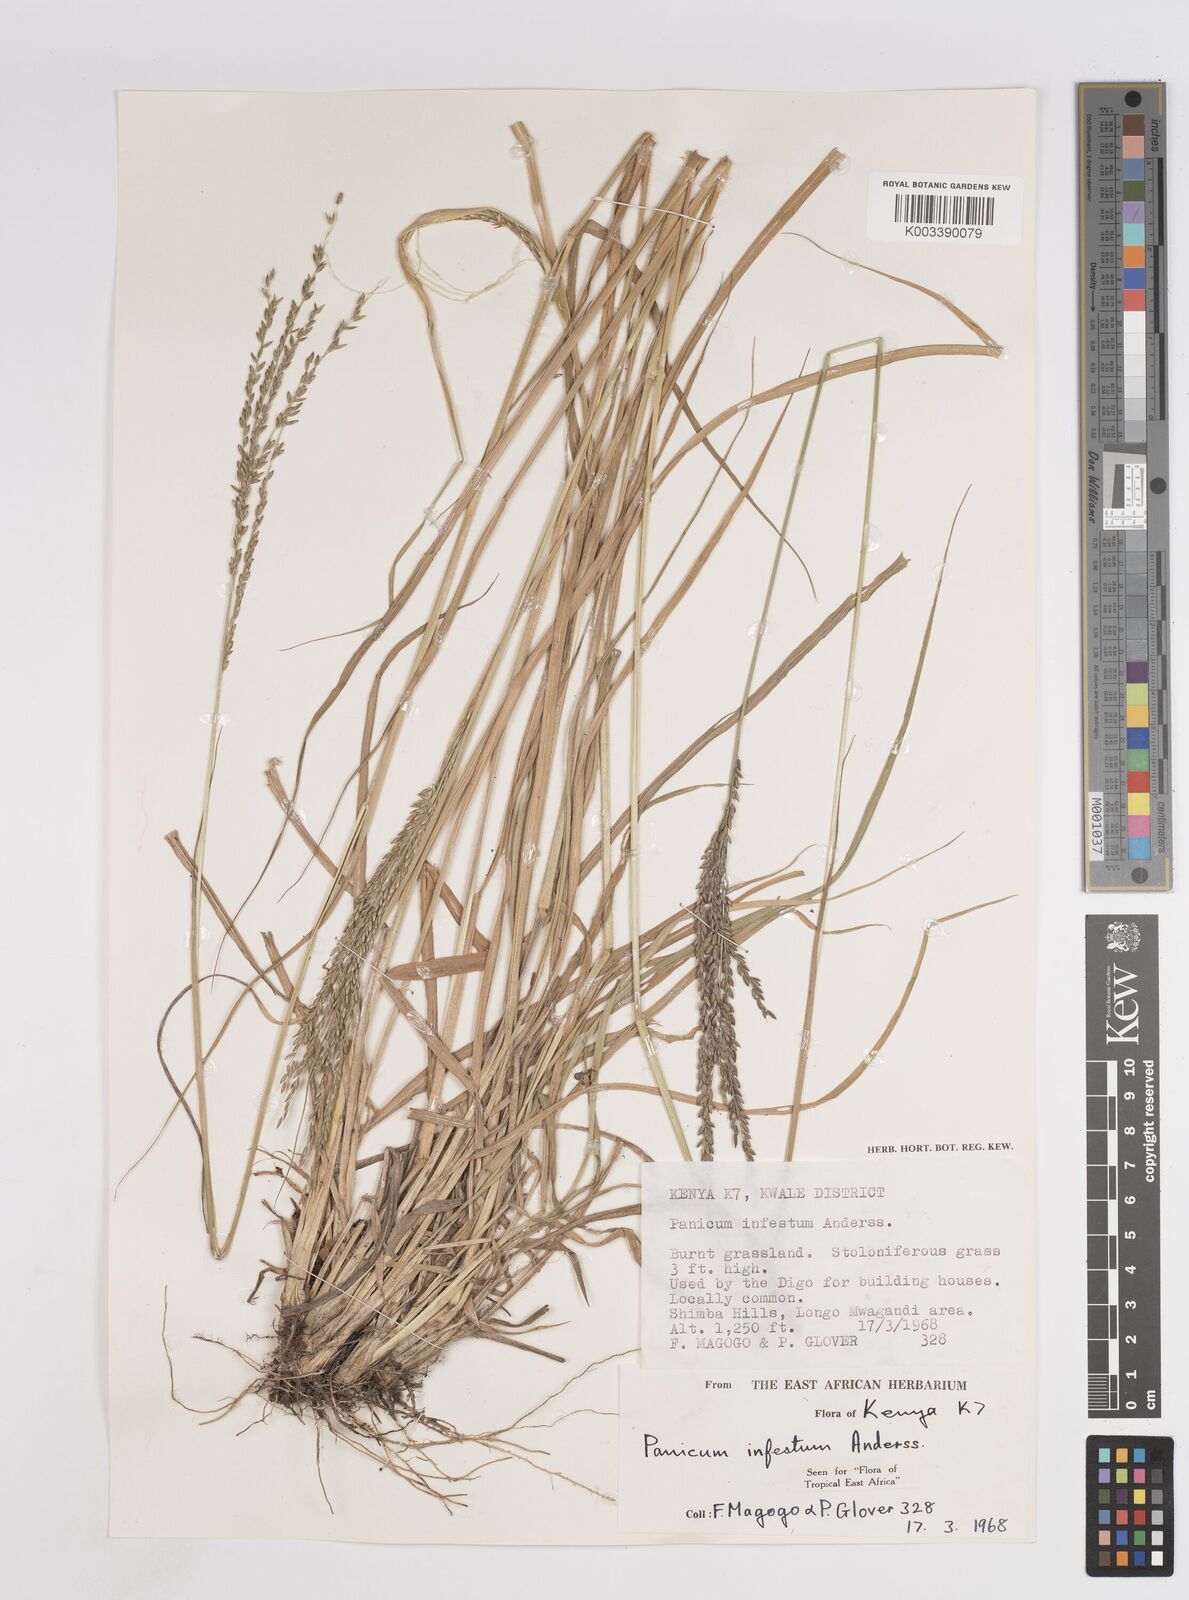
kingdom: Plantae
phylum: Tracheophyta
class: Liliopsida
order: Poales
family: Poaceae
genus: Megathyrsus
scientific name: Megathyrsus infestus
